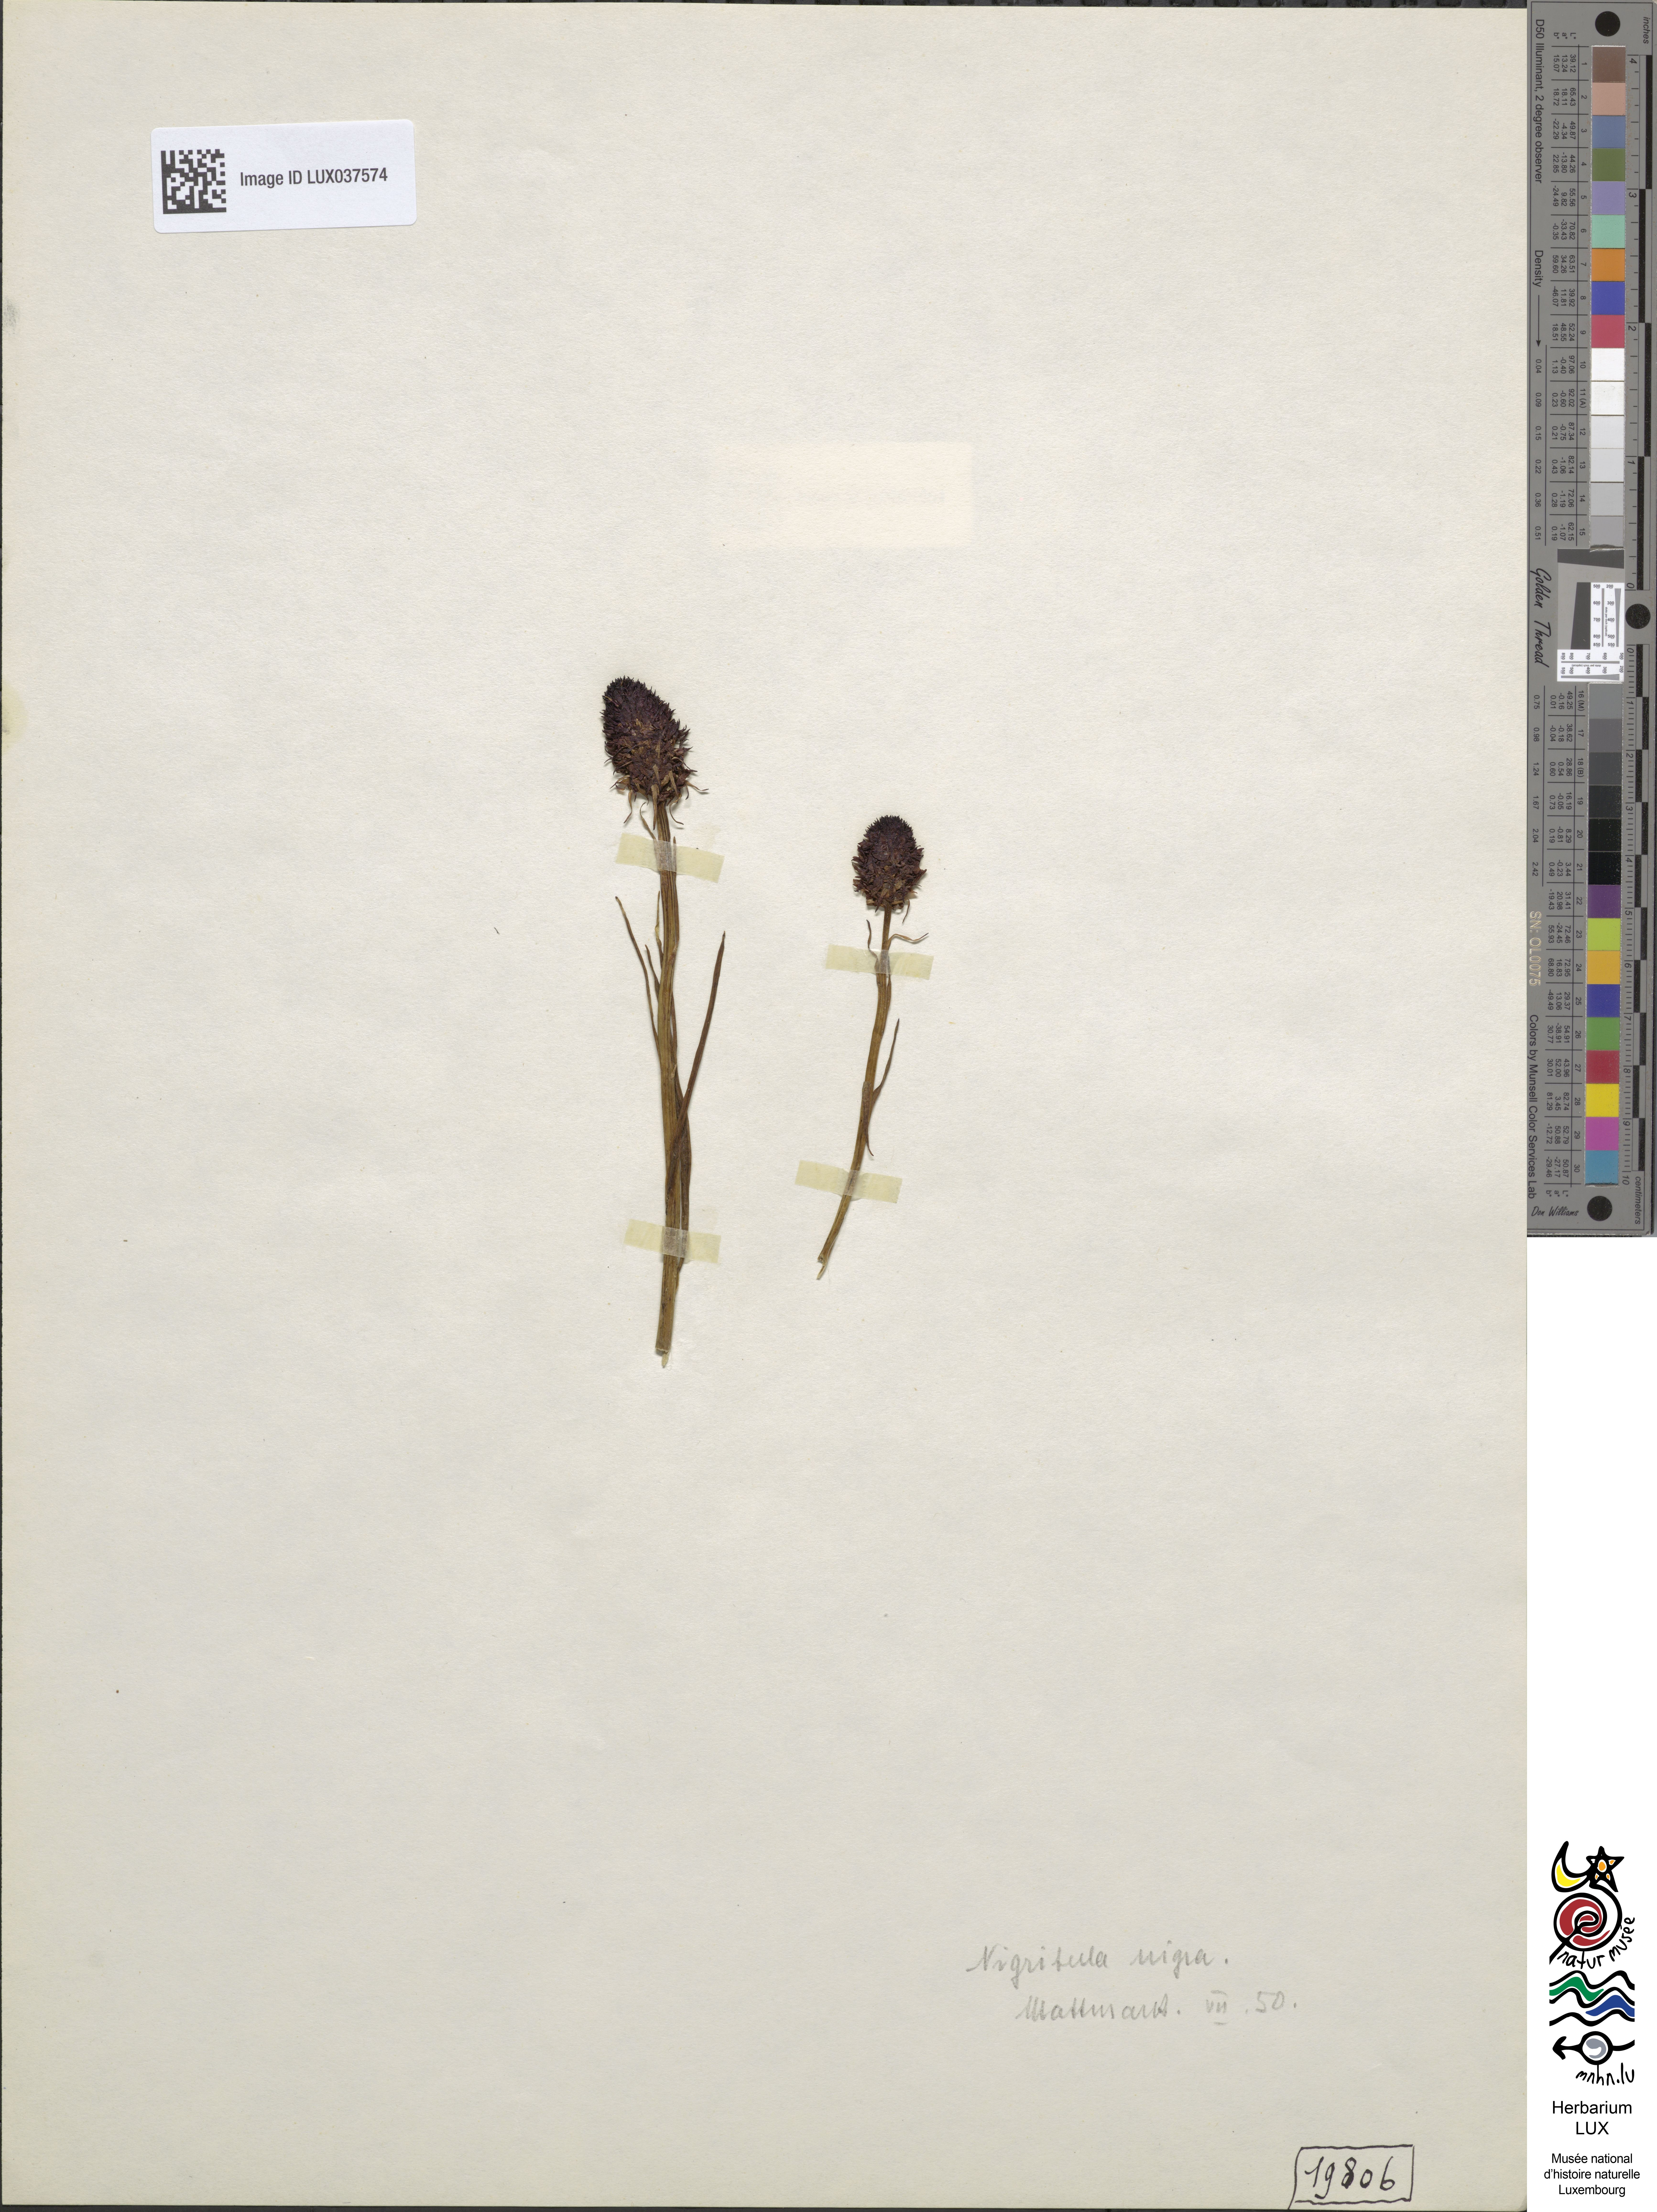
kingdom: Plantae
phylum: Tracheophyta
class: Liliopsida
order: Asparagales
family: Orchidaceae
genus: Gymnadenia
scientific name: Gymnadenia nigra
